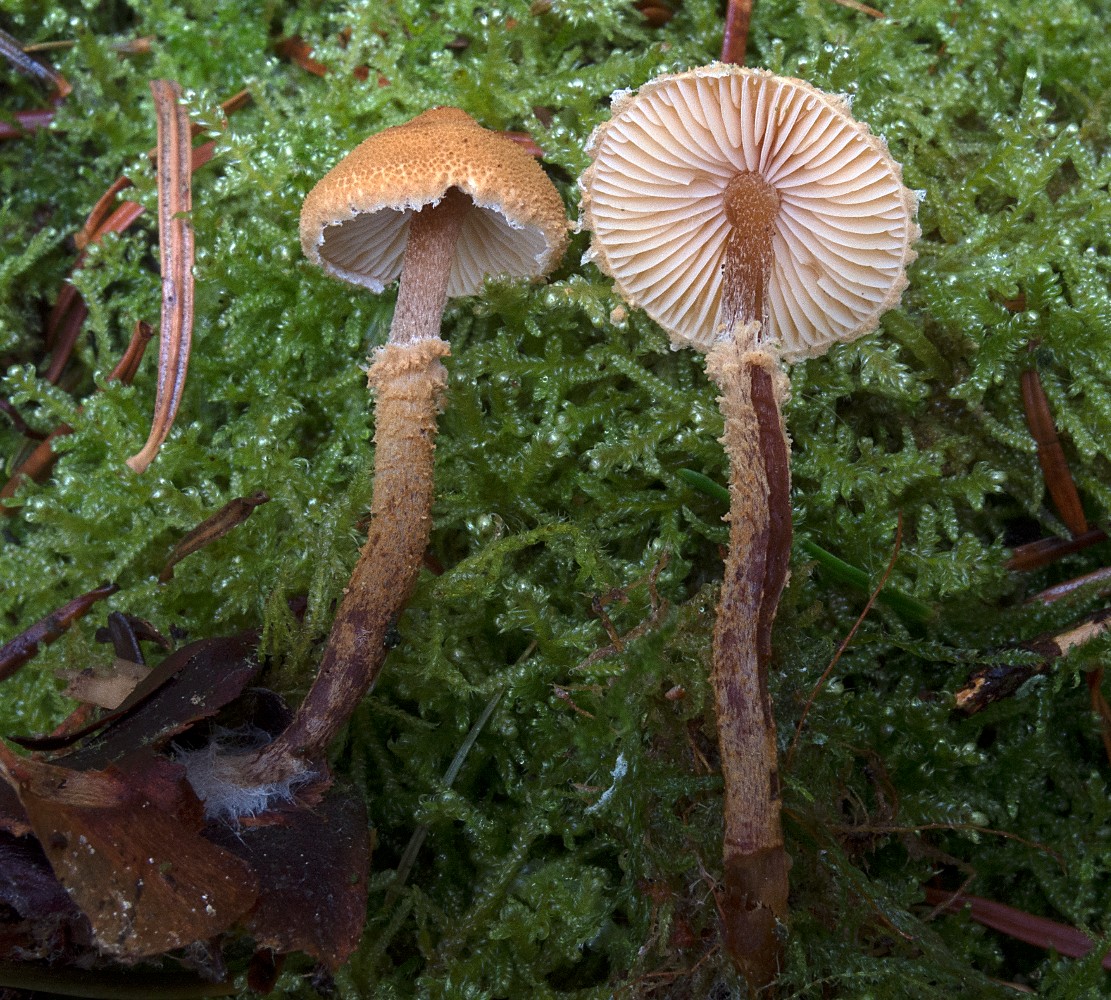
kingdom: Fungi
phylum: Basidiomycota
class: Agaricomycetes
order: Agaricales
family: Tricholomataceae
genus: Cystoderma
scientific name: Cystoderma jasonis
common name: gulkødet grynhat
